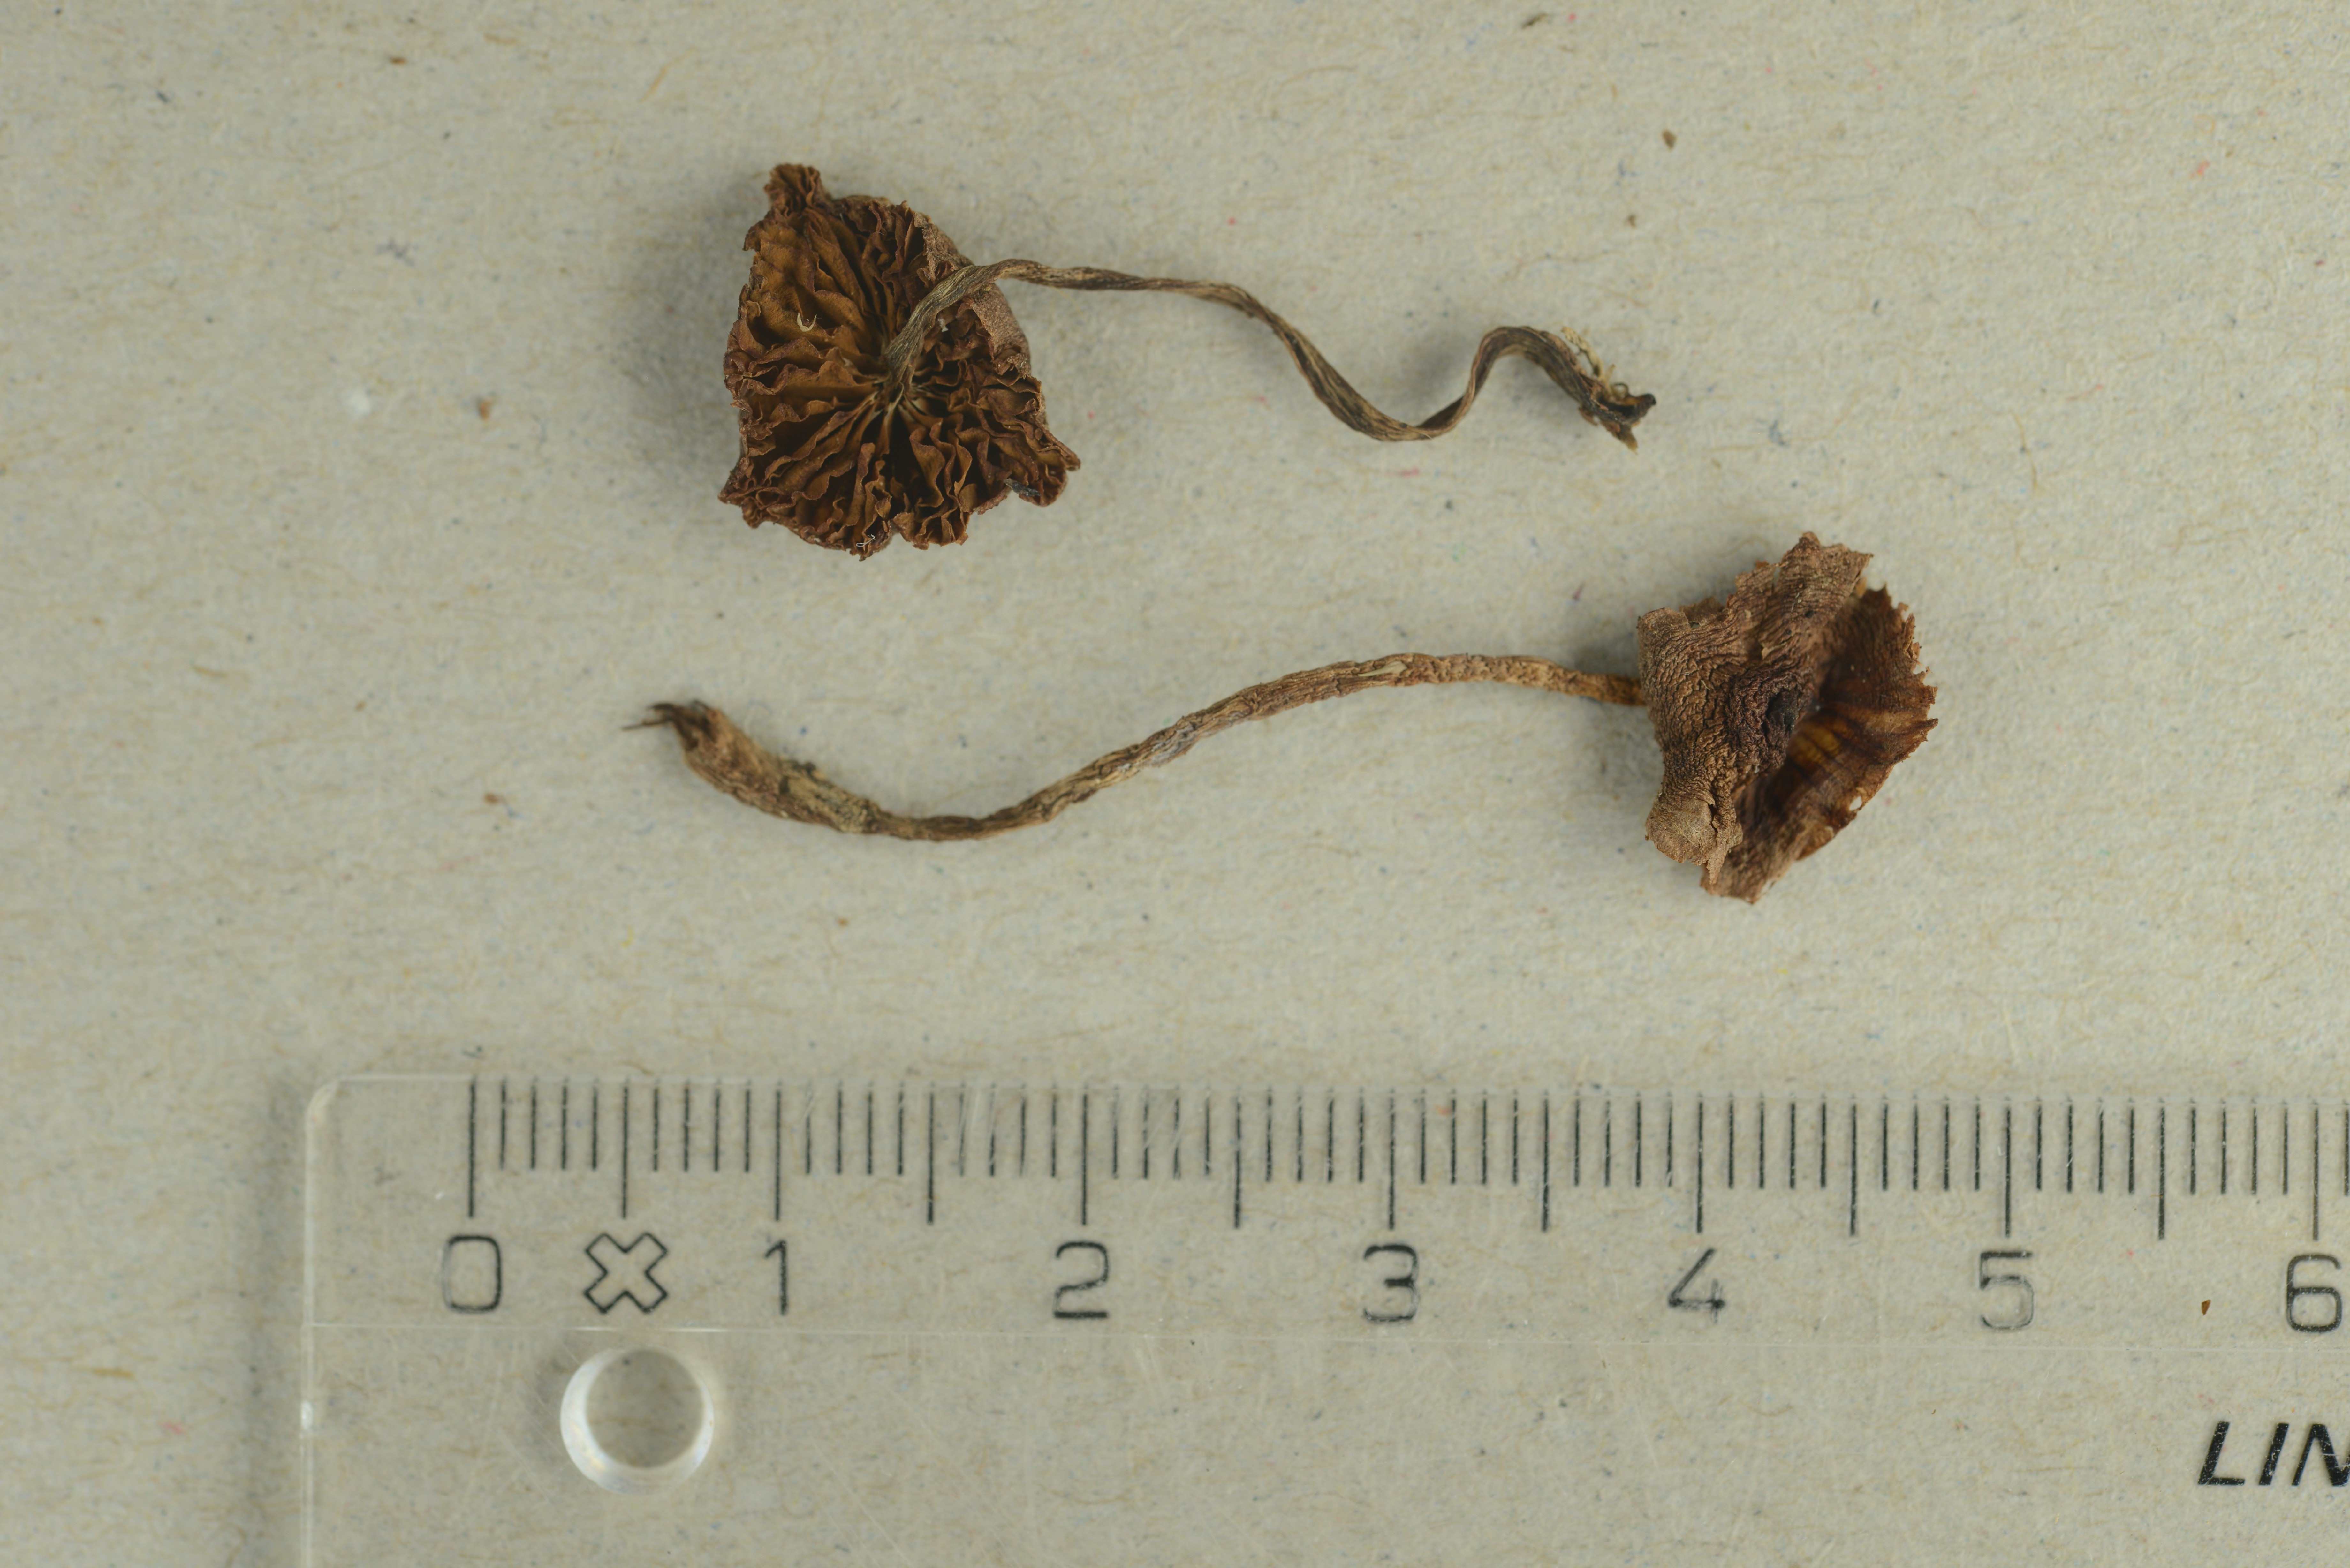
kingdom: Fungi
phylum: Basidiomycota
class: Agaricomycetes
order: Agaricales
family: Cortinariaceae
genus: Cortinarius
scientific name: Cortinarius fulvescens
